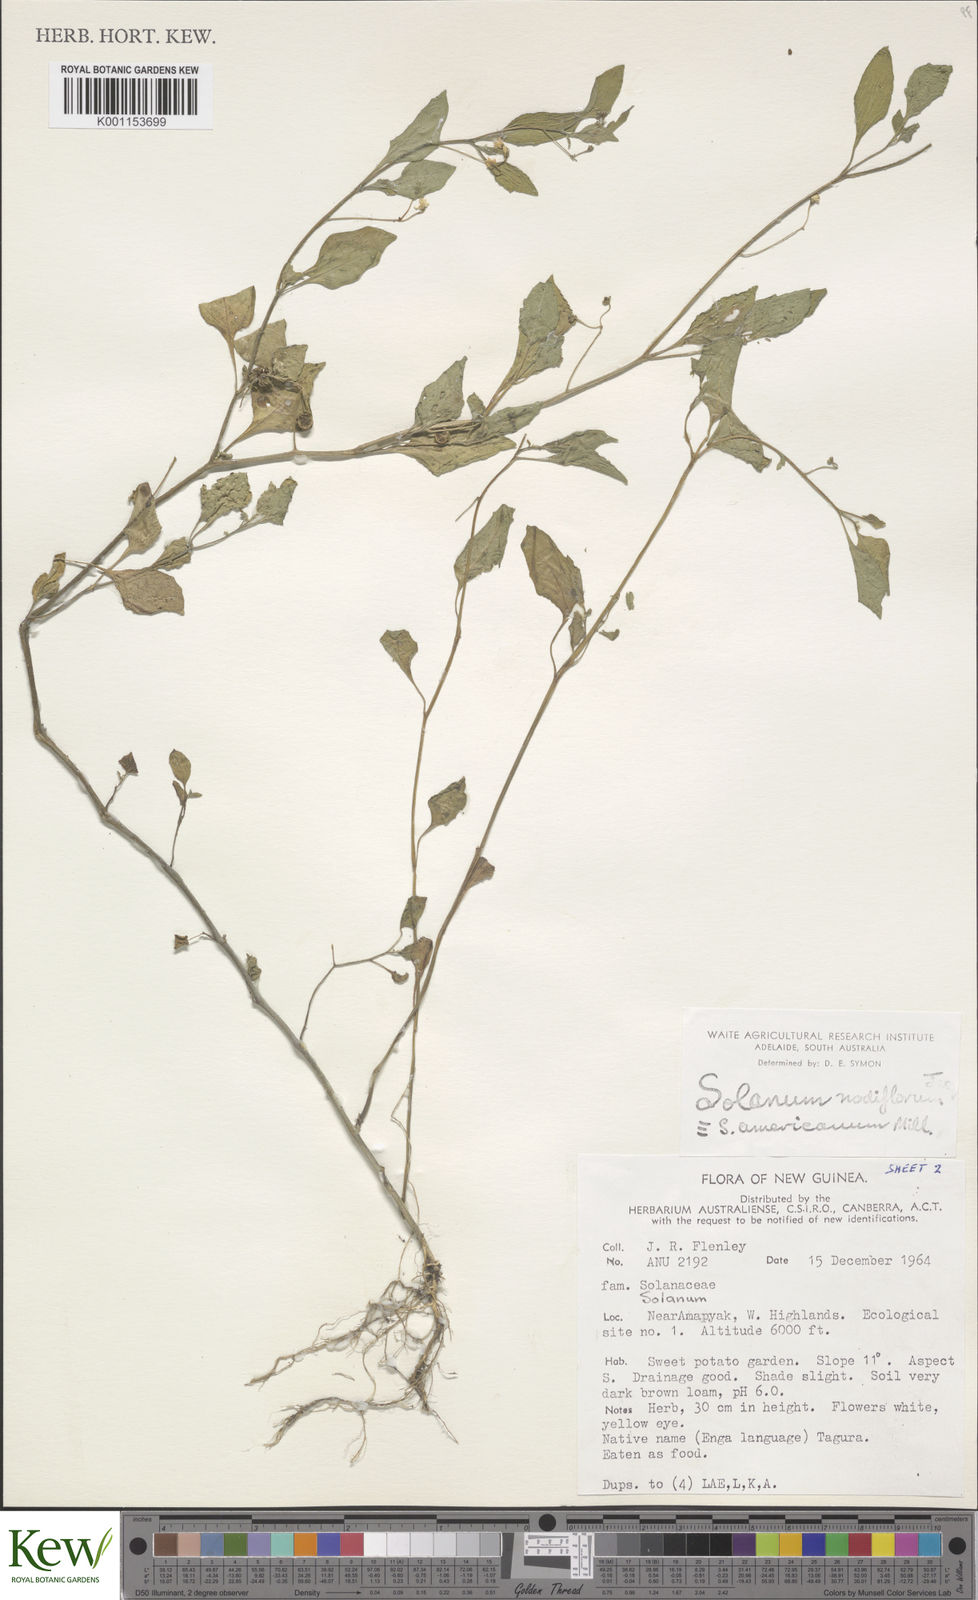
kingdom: Plantae
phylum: Tracheophyta
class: Magnoliopsida
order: Solanales
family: Solanaceae
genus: Solanum
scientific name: Solanum americanum
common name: American black nightshade
